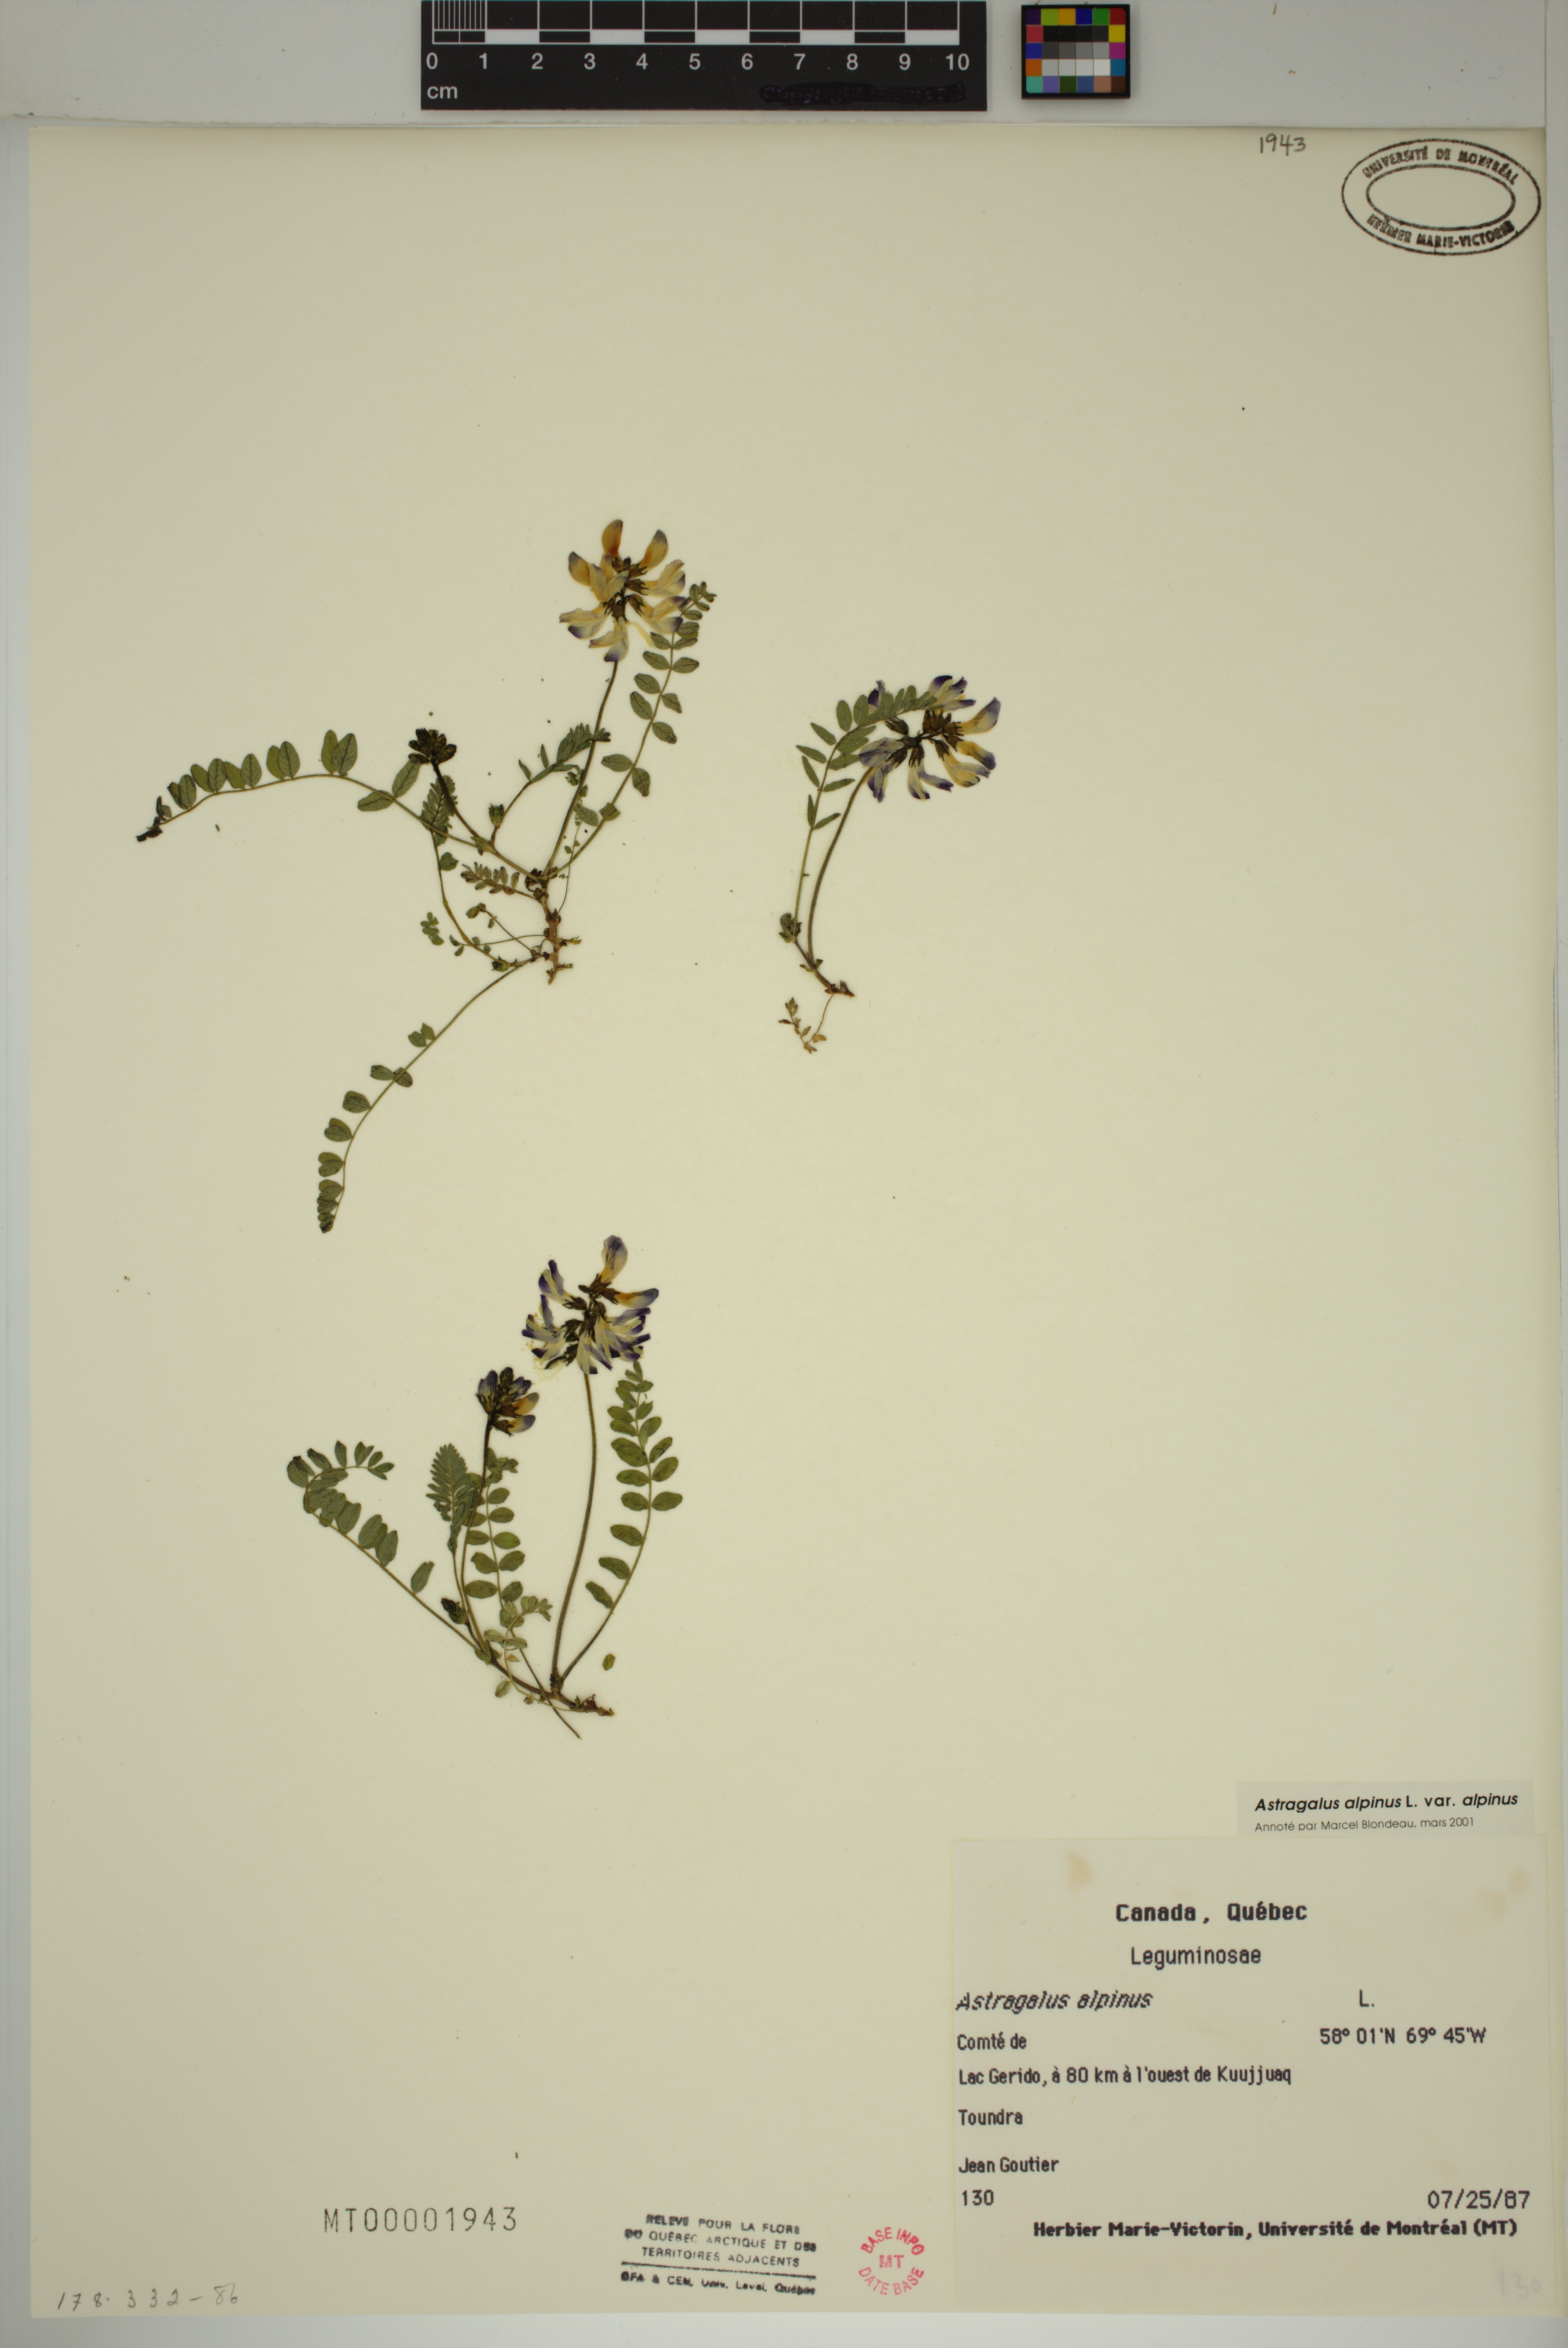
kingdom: Plantae
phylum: Tracheophyta
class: Magnoliopsida
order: Fabales
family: Fabaceae
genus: Astragalus
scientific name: Astragalus alpinus
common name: Alpine milk-vetch
